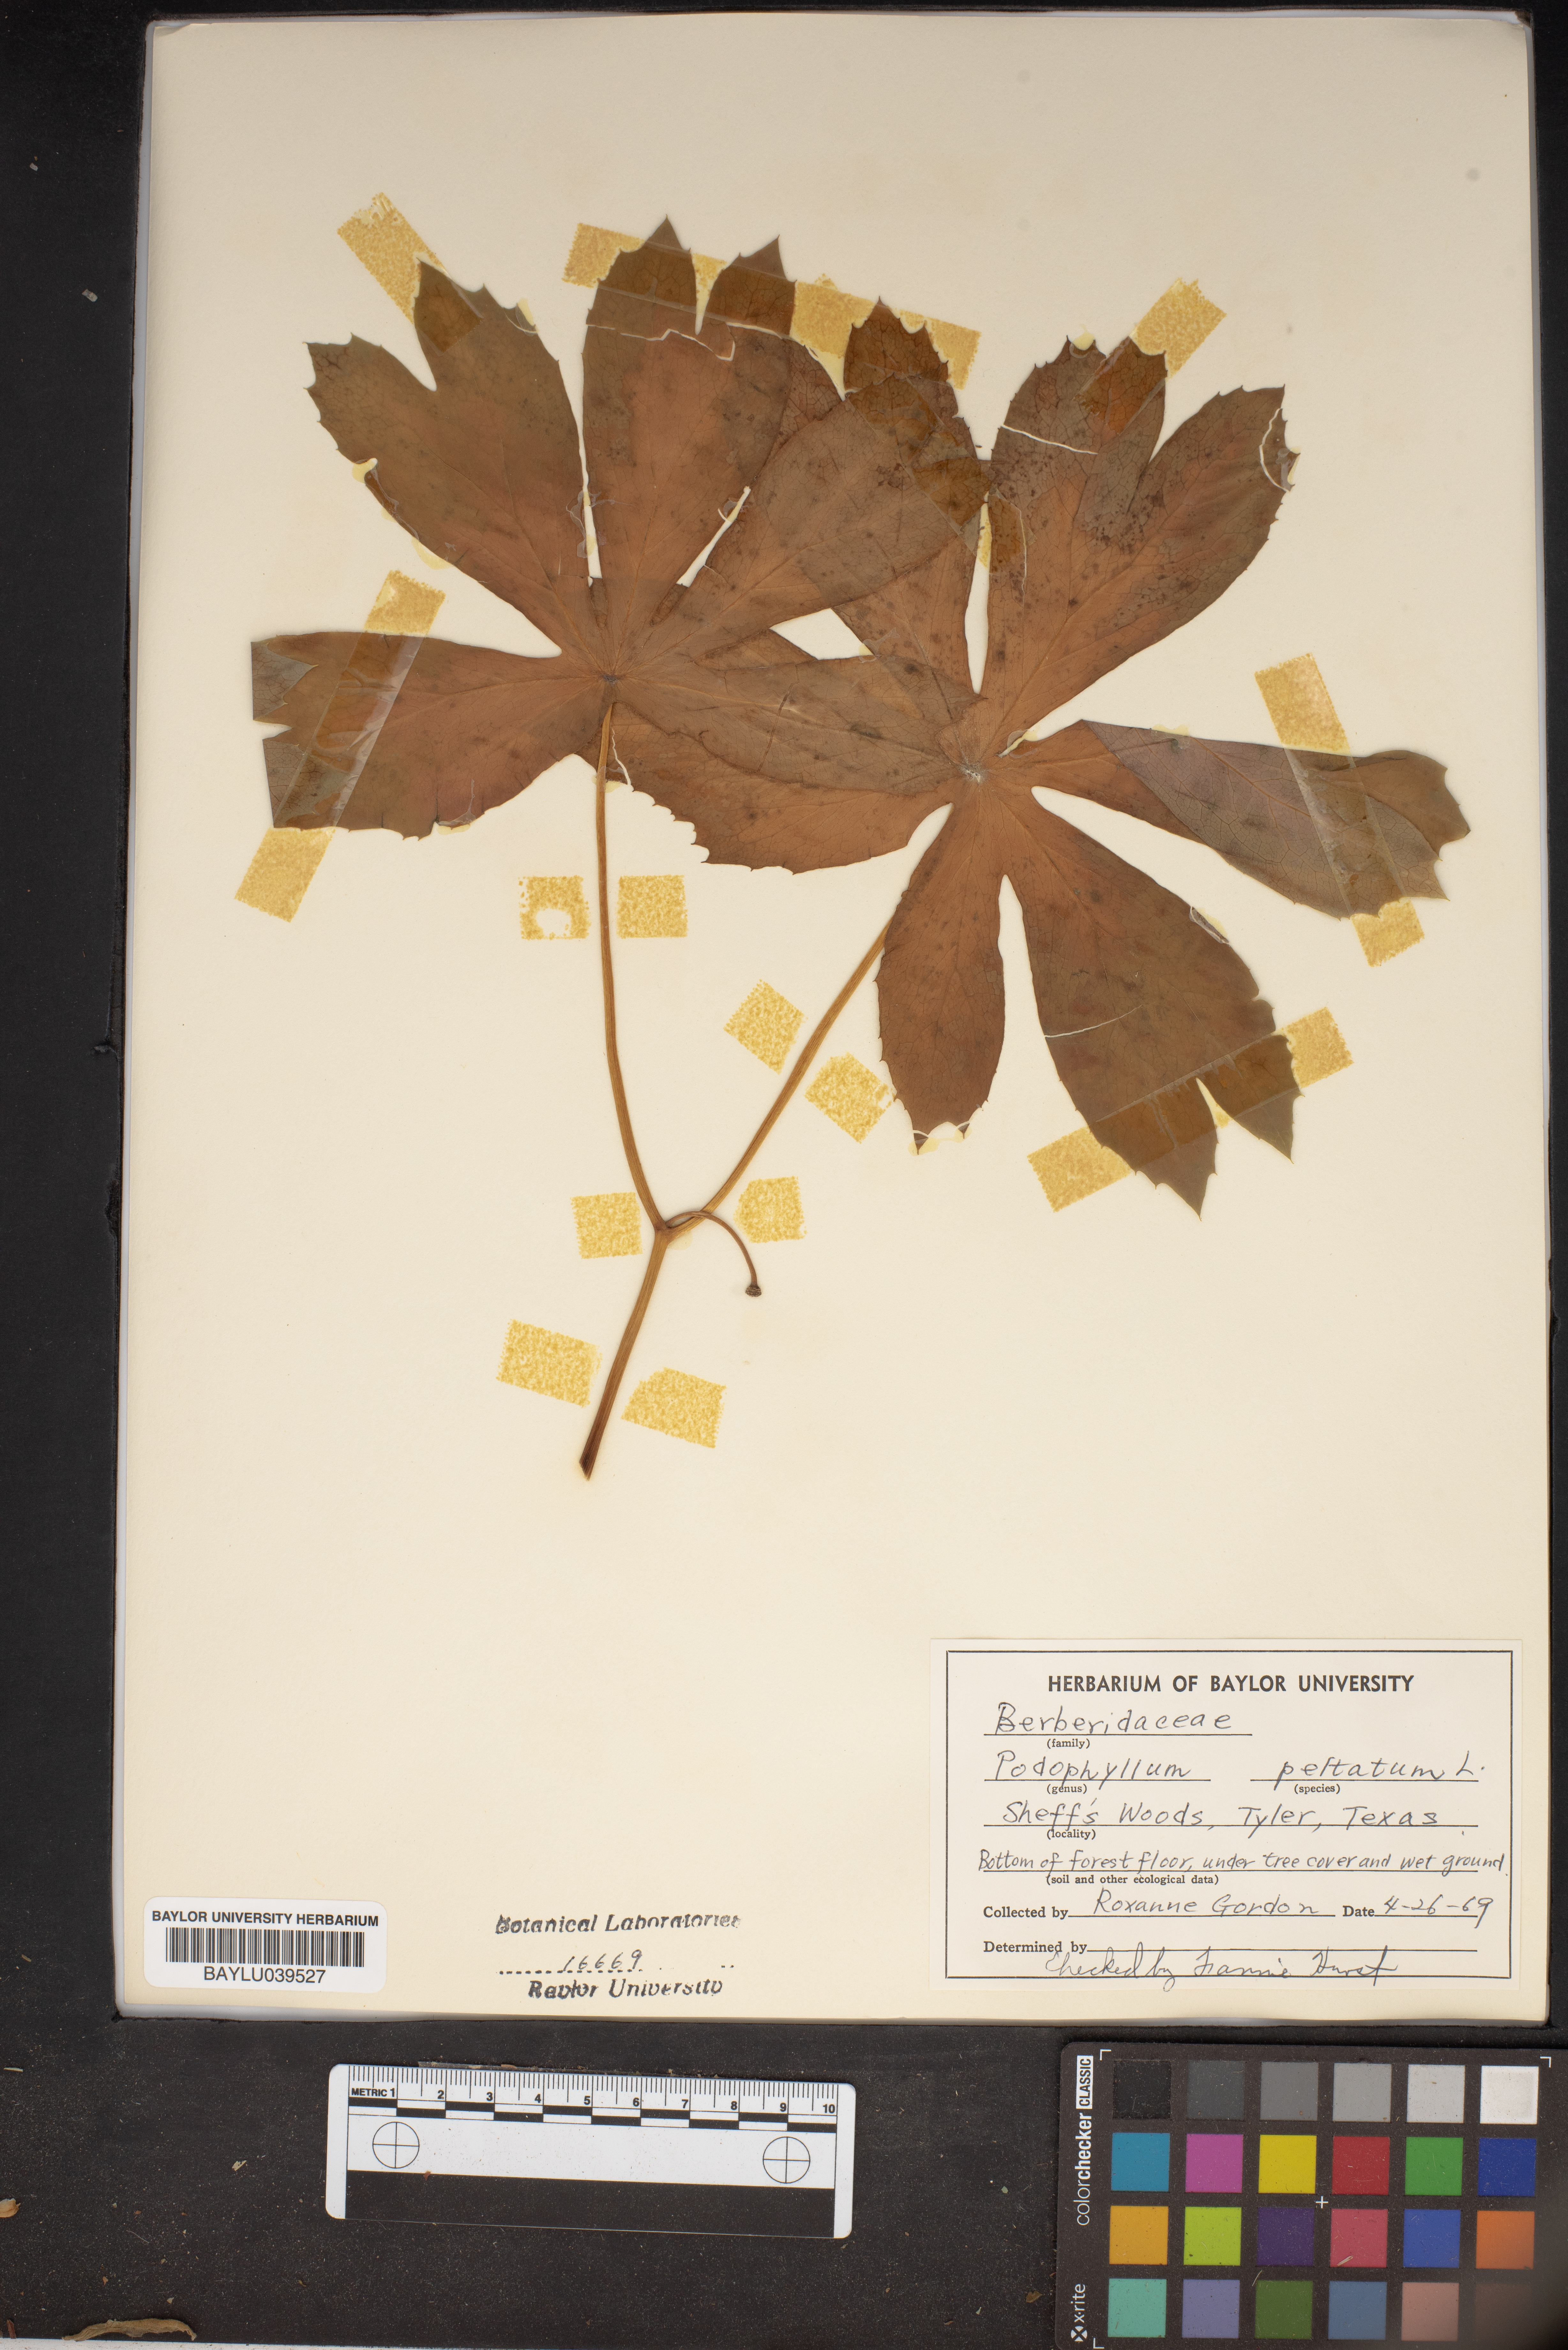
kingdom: Plantae
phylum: Tracheophyta
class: Magnoliopsida
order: Ranunculales
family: Berberidaceae
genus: Podophyllum
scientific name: Podophyllum peltatum
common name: Wild mandrake
